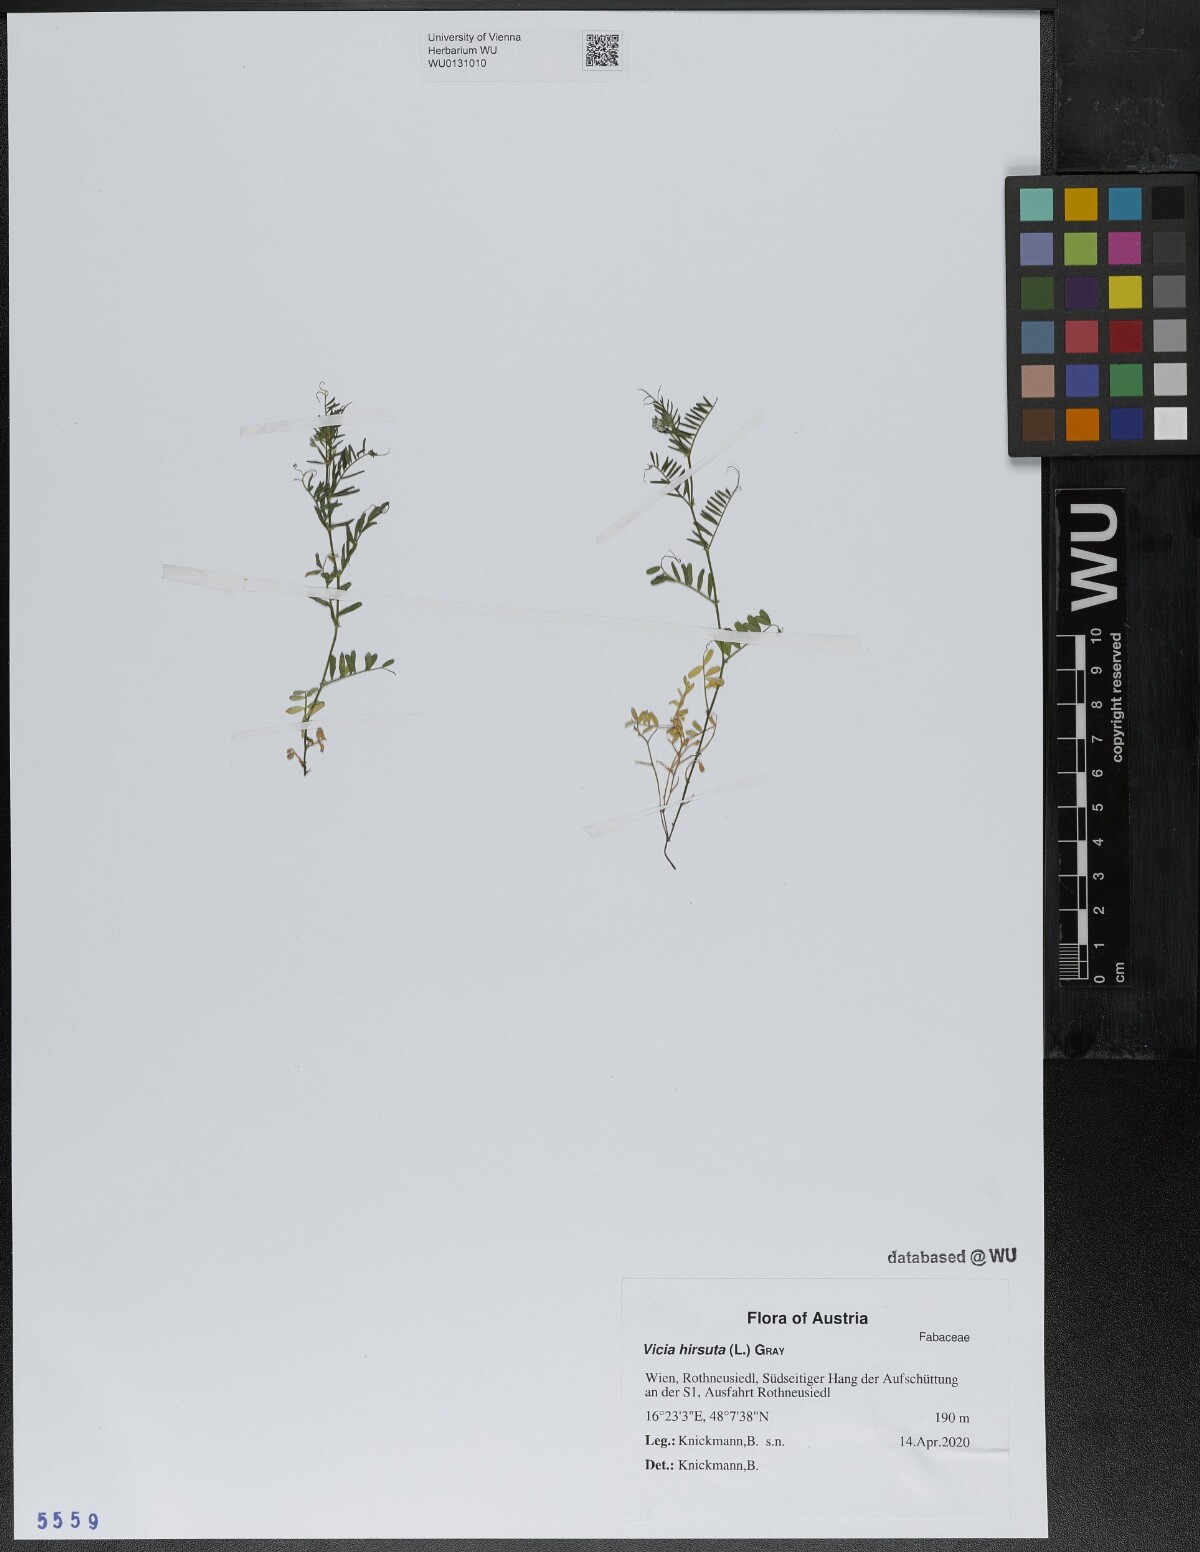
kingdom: Plantae
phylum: Tracheophyta
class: Magnoliopsida
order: Fabales
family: Fabaceae
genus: Vicia
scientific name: Vicia hirsuta
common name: Tiny vetch
